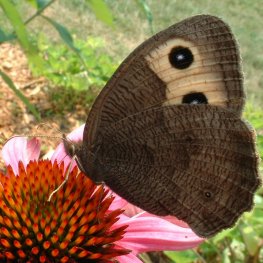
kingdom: Animalia
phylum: Arthropoda
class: Insecta
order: Lepidoptera
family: Nymphalidae
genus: Cercyonis
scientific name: Cercyonis pegala
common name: Common Wood-Nymph
